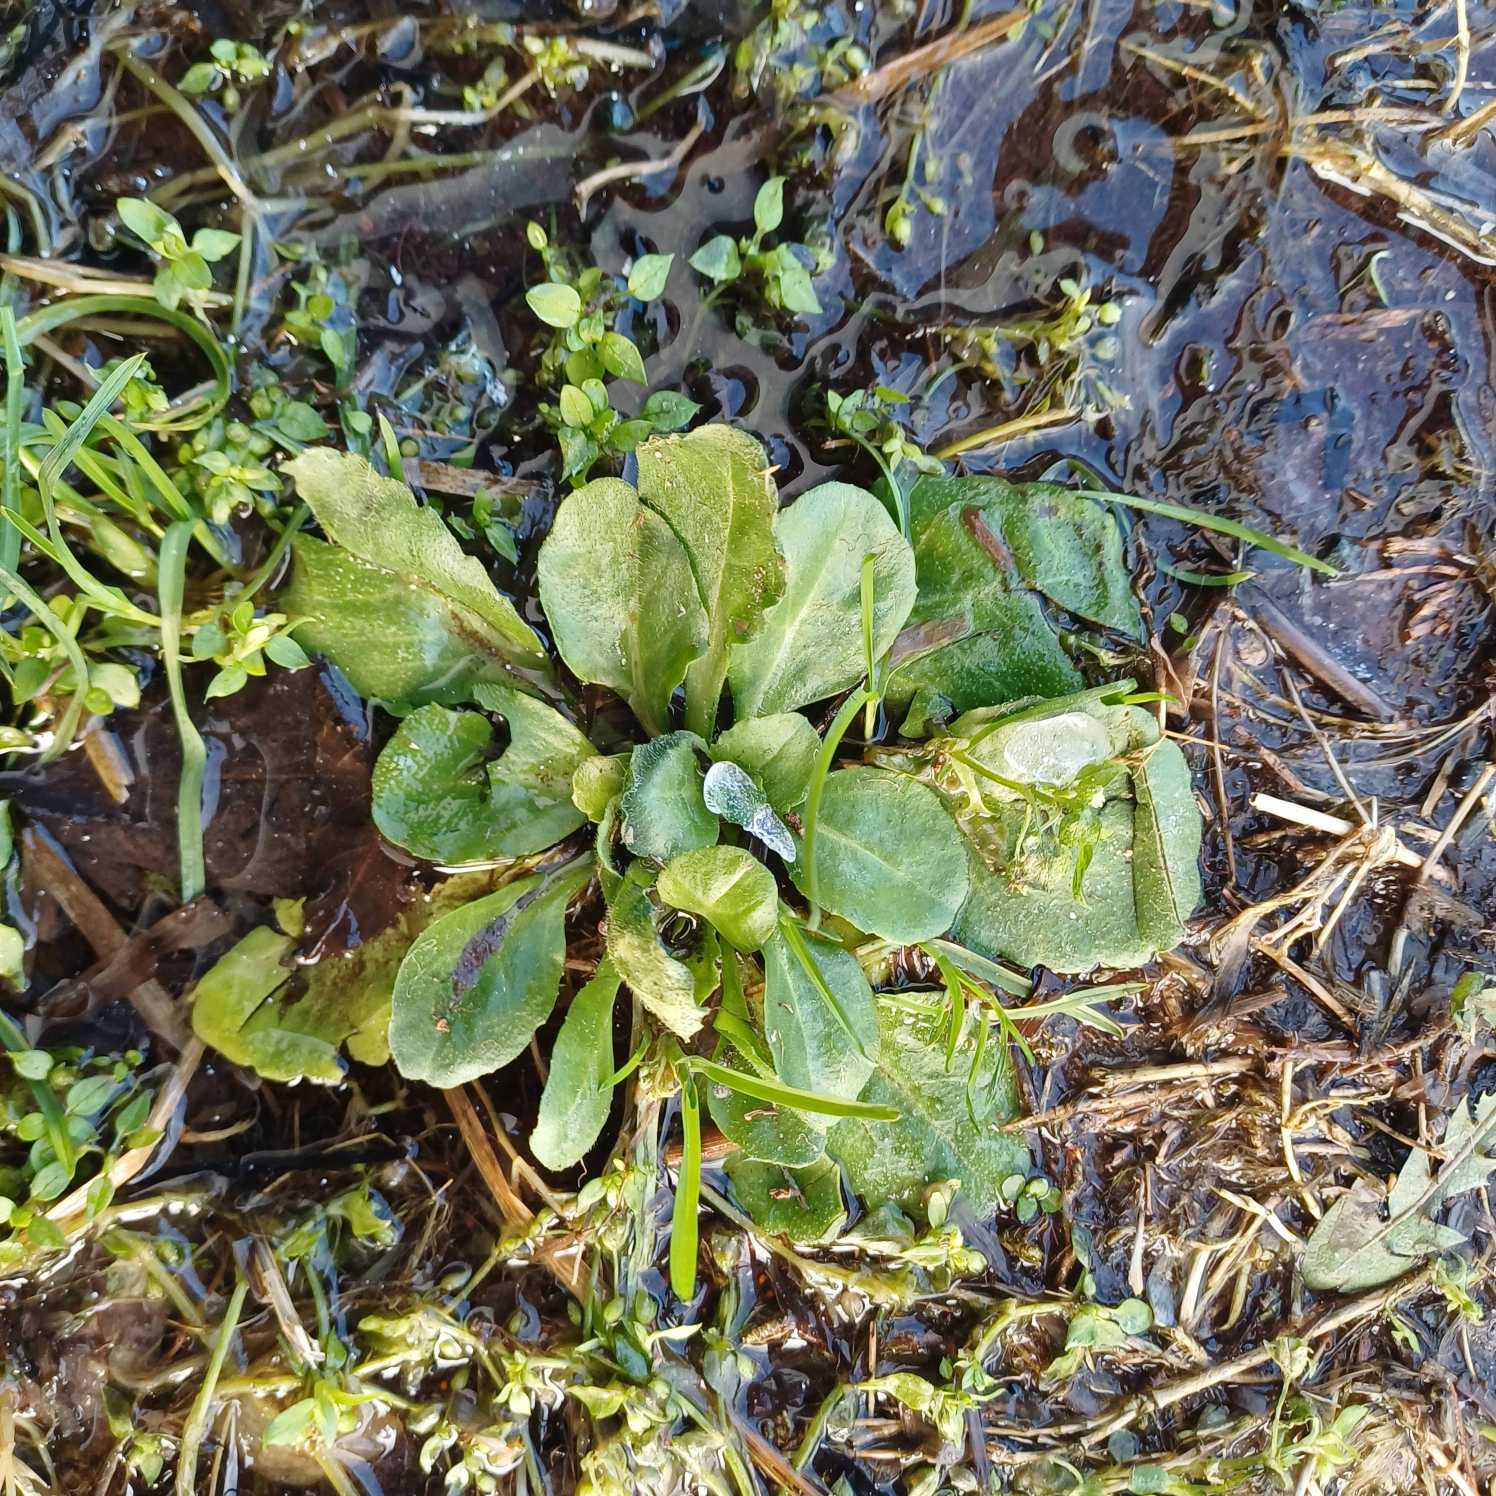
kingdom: Plantae
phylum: Tracheophyta
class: Magnoliopsida
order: Asterales
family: Asteraceae
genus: Bellis
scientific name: Bellis perennis
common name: Tusindfryd
